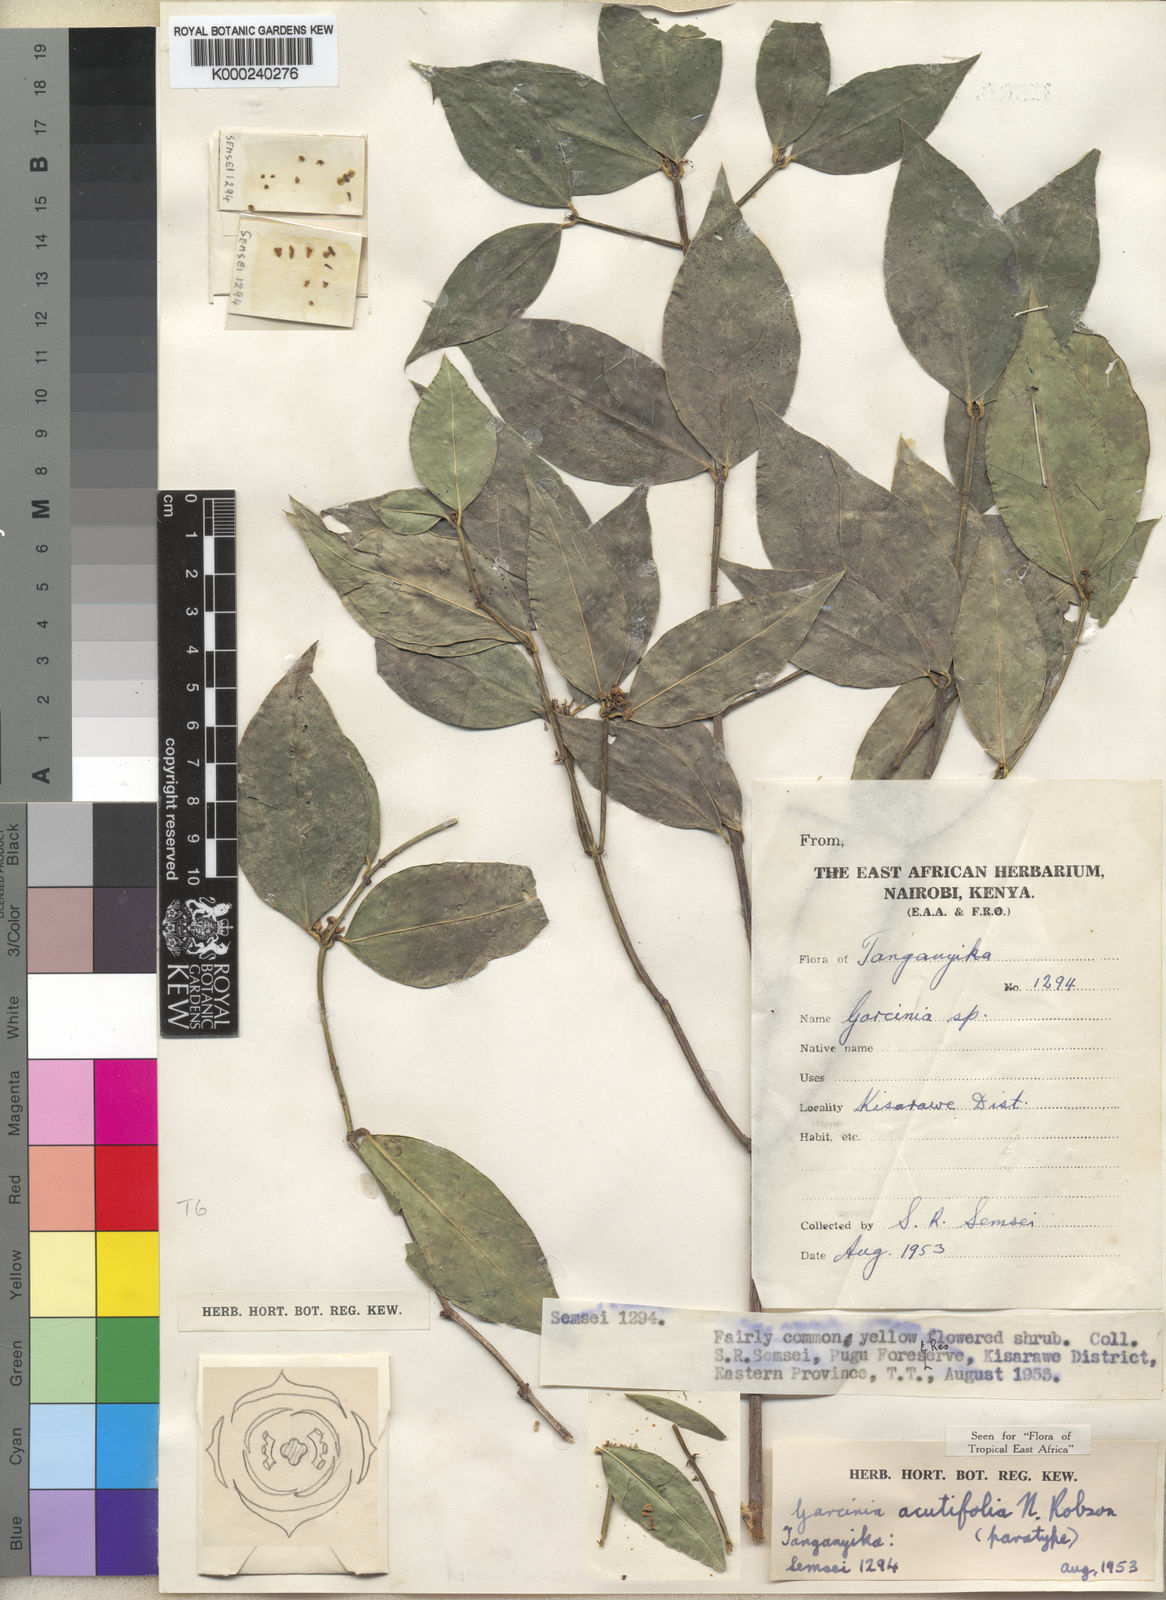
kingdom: Plantae
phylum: Tracheophyta
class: Magnoliopsida
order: Malpighiales
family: Clusiaceae
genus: Garcinia
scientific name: Garcinia acutifolia
